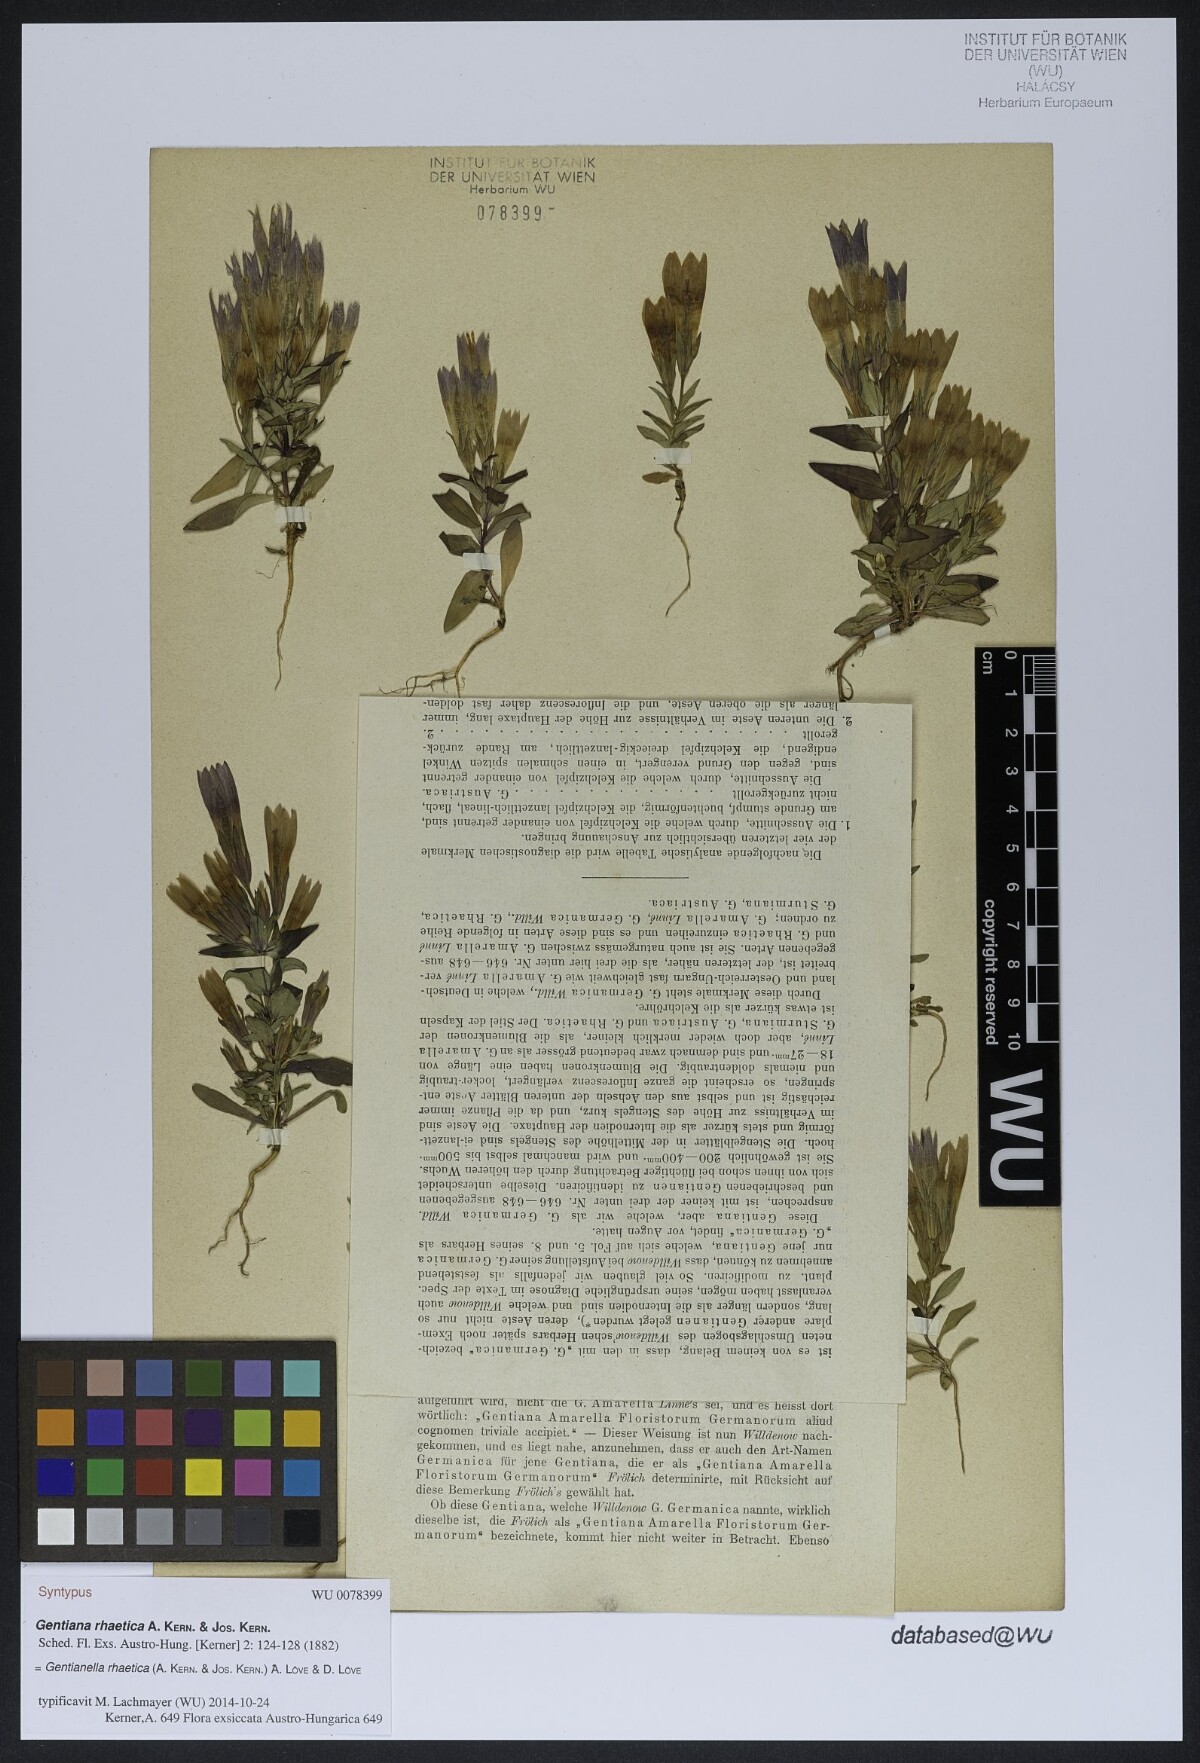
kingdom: Plantae
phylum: Tracheophyta
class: Magnoliopsida
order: Gentianales
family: Gentianaceae
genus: Gentianella
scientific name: Gentianella rhaetica
